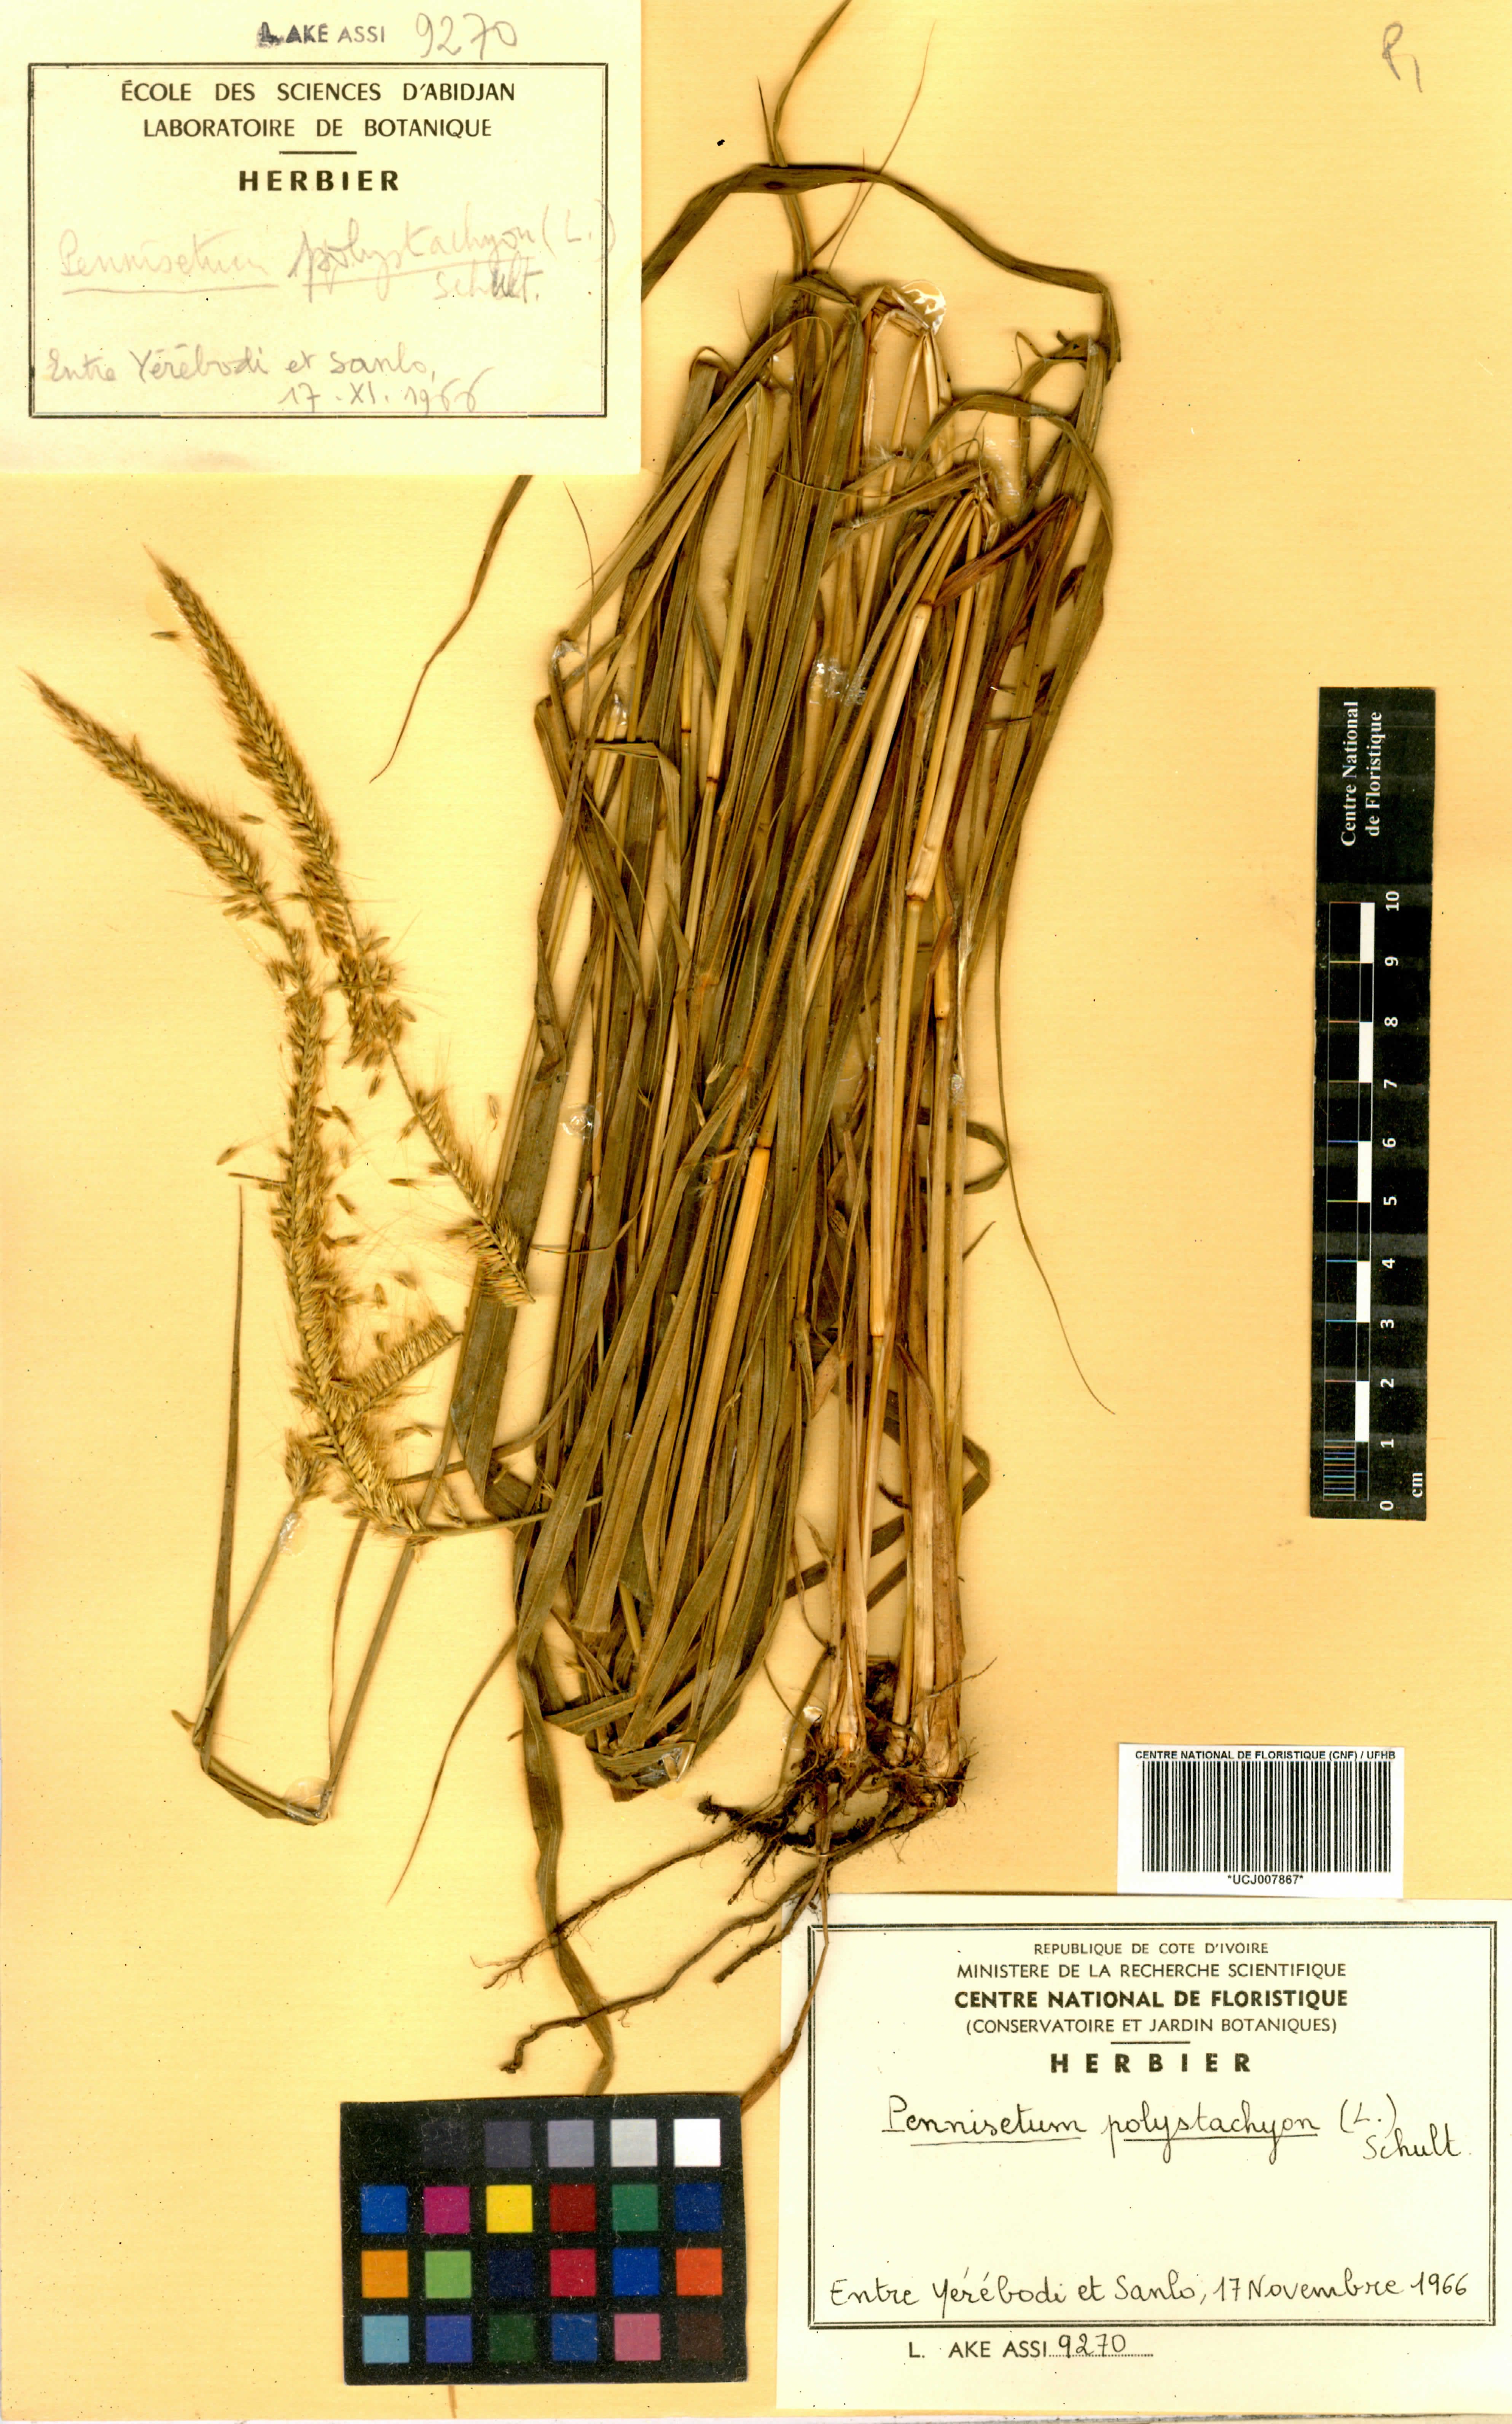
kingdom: Plantae
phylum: Tracheophyta
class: Liliopsida
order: Poales
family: Poaceae
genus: Setaria
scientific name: Setaria parviflora
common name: Knotroot bristle-grass
